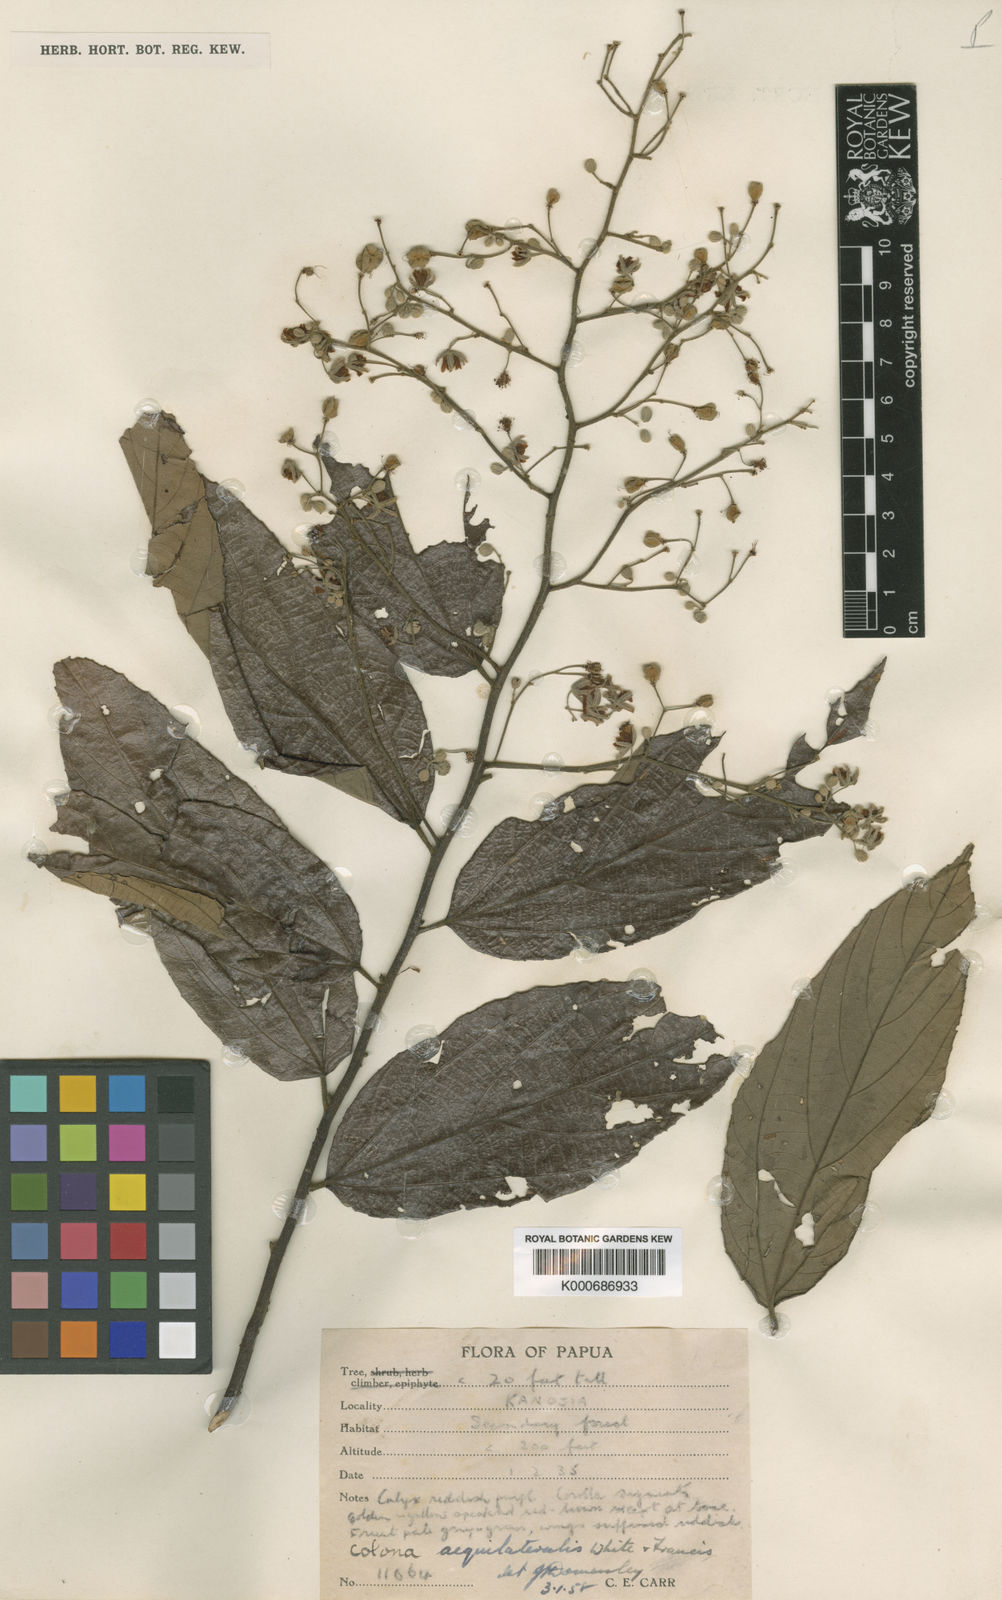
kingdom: Plantae
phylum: Tracheophyta
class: Magnoliopsida
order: Malvales
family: Malvaceae
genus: Colona
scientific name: Colona aequilateralis
